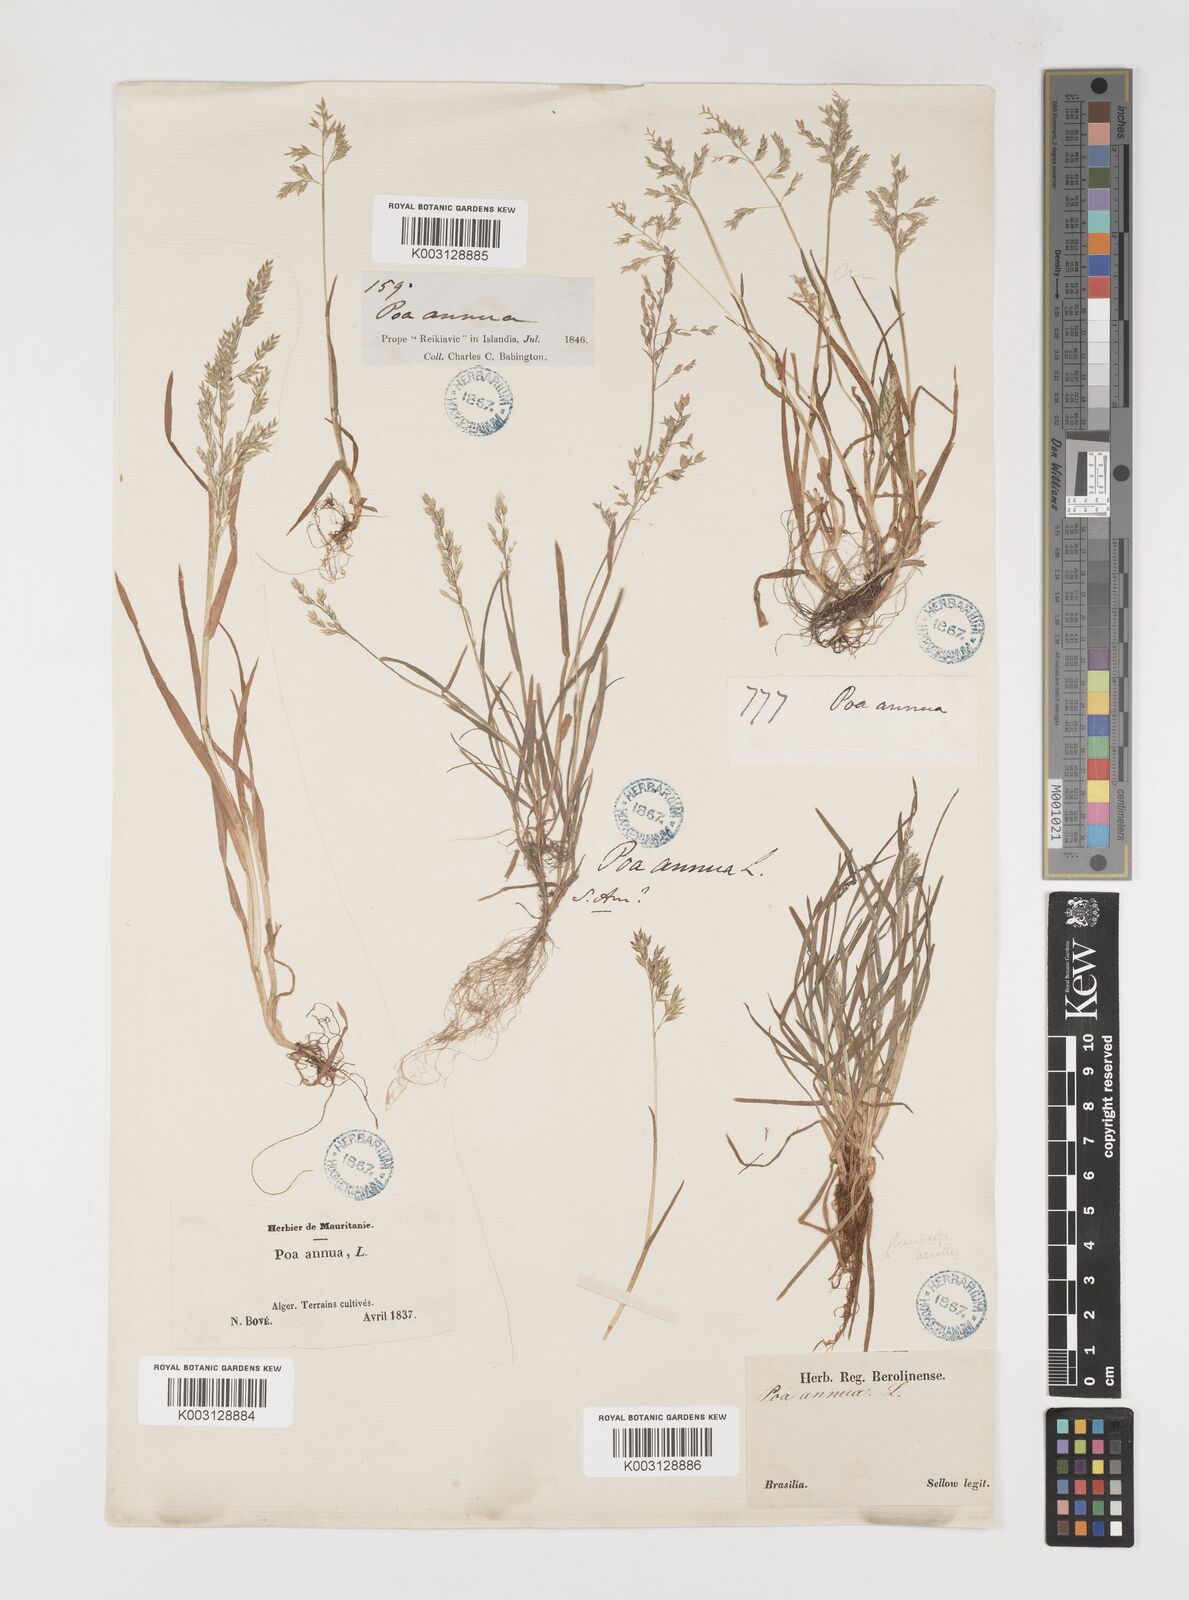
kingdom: Plantae
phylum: Tracheophyta
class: Liliopsida
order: Poales
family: Poaceae
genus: Poa
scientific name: Poa annua
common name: Annual bluegrass
